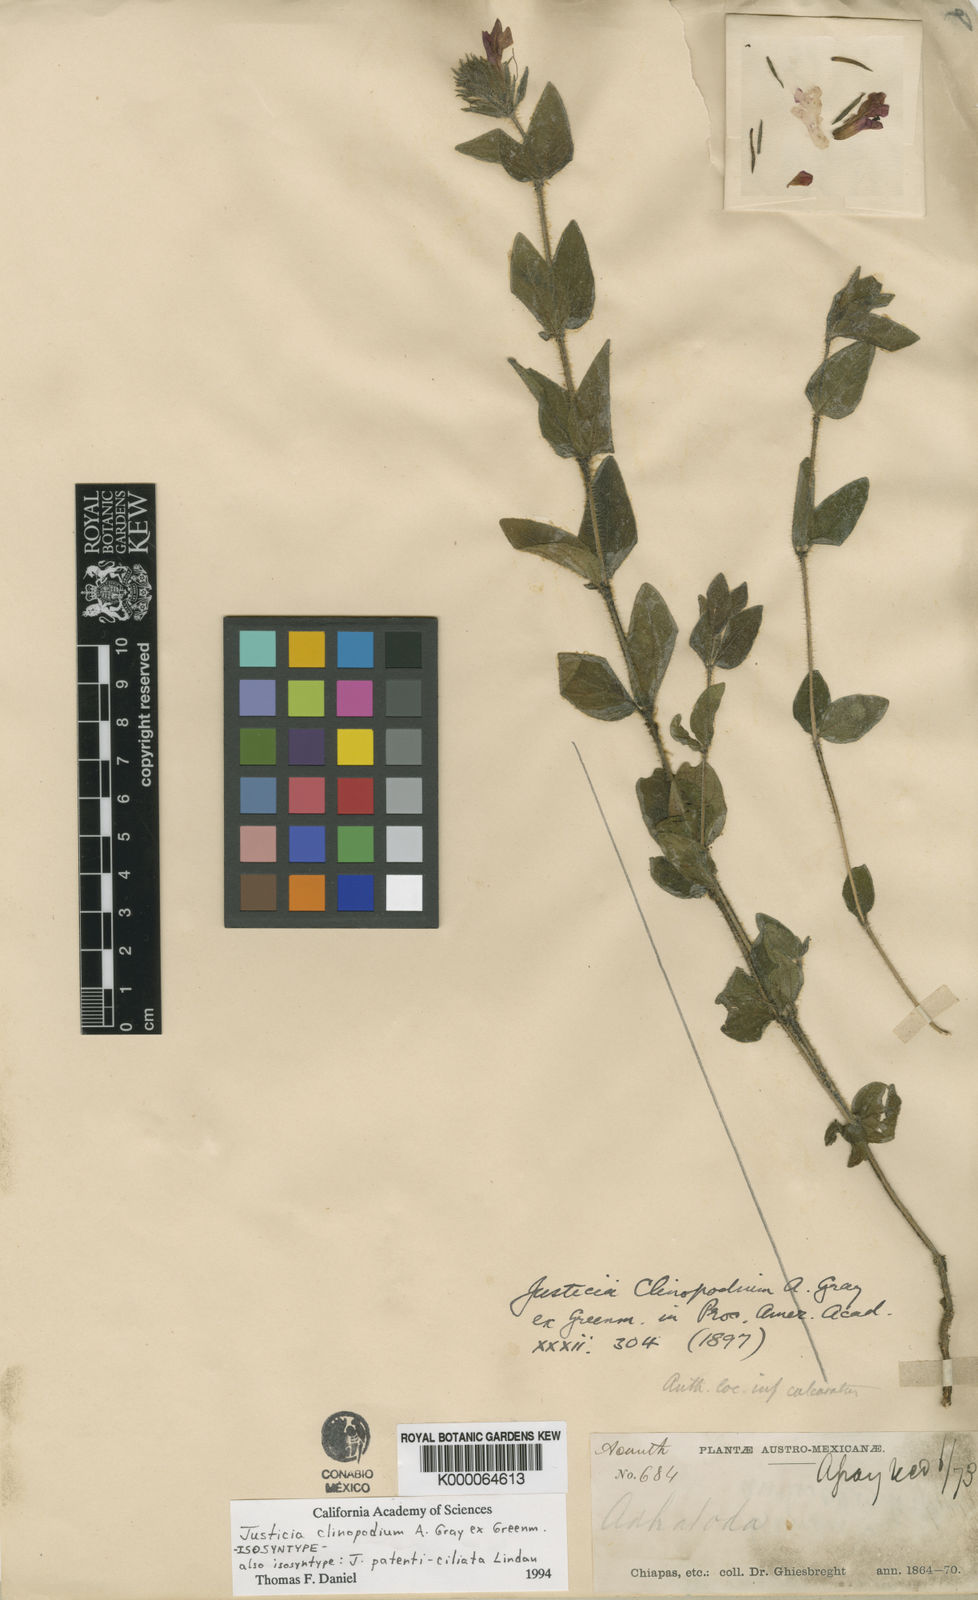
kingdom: Plantae
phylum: Tracheophyta
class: Magnoliopsida
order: Lamiales
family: Acanthaceae
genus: Justicia
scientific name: Justicia clinopodium
